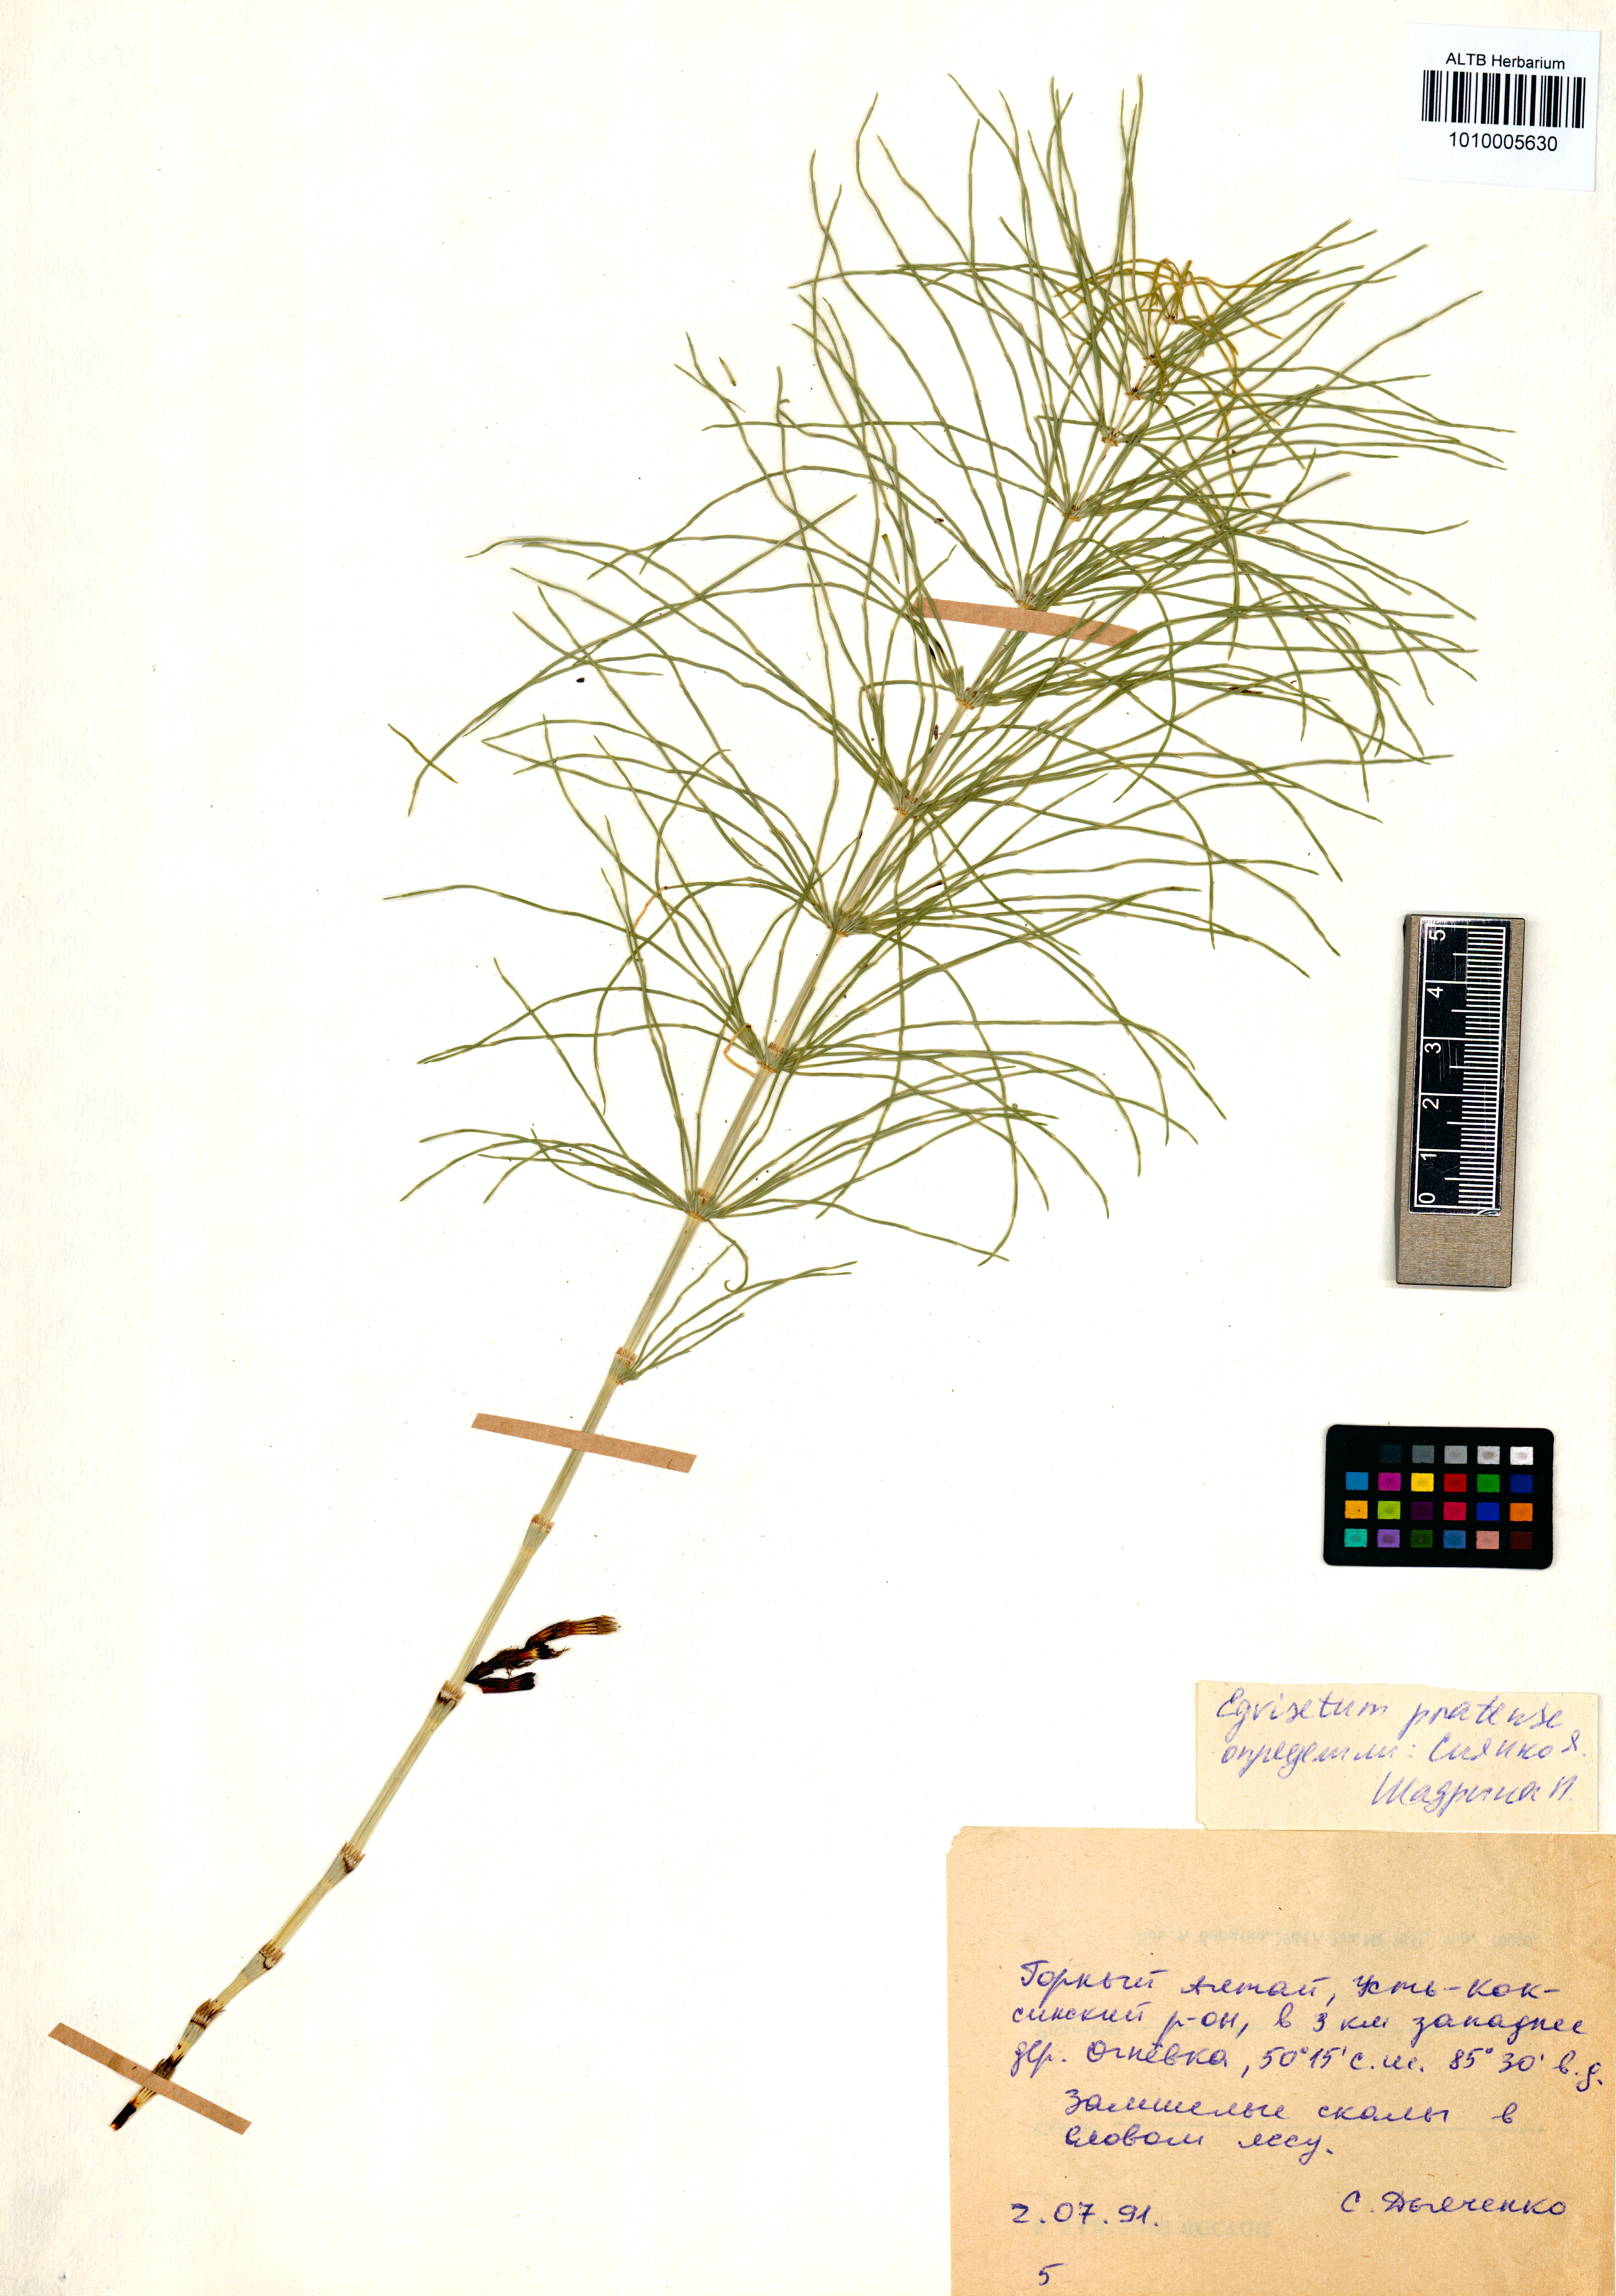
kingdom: Plantae
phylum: Tracheophyta
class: Polypodiopsida
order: Equisetales
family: Equisetaceae
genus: Equisetum
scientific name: Equisetum pratense
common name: Meadow horsetail
